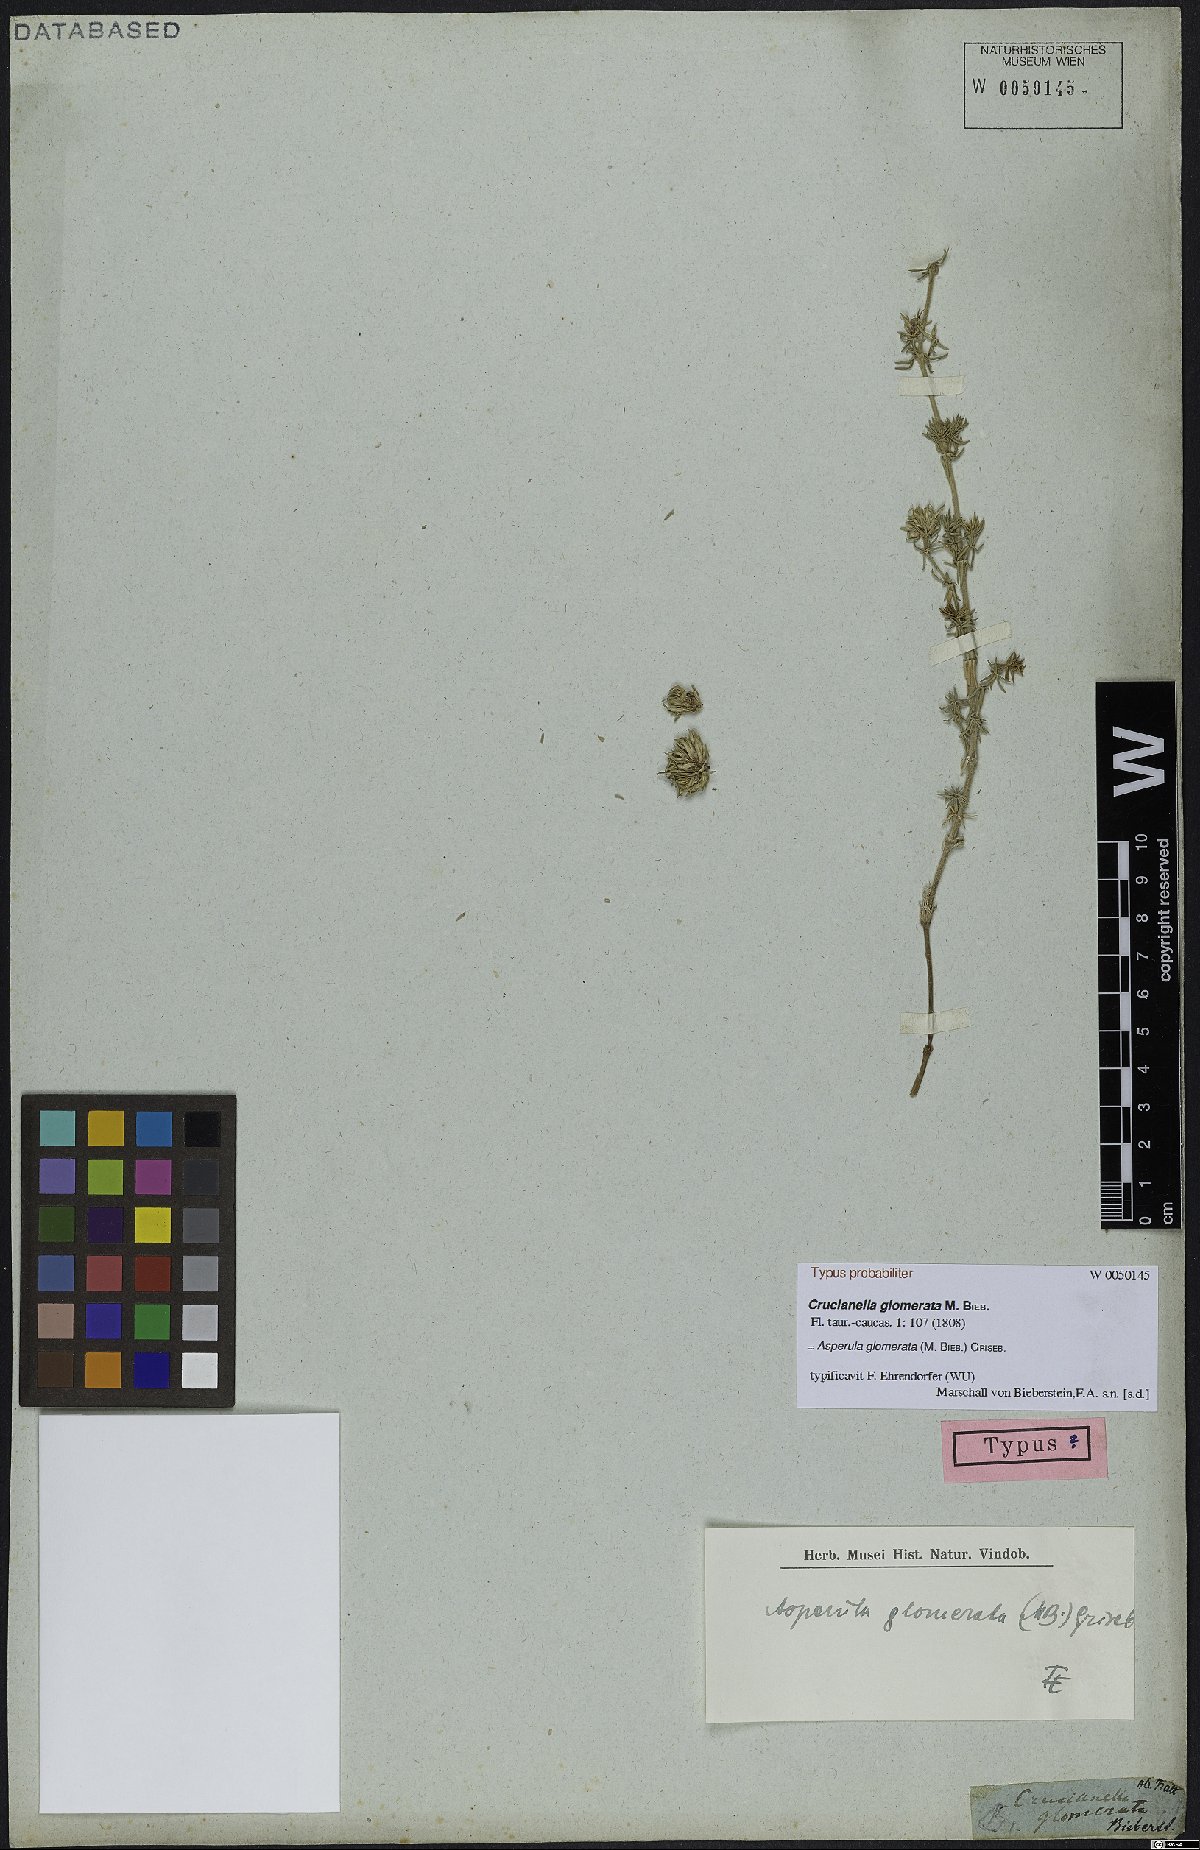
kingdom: Plantae
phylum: Tracheophyta
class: Magnoliopsida
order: Gentianales
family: Rubiaceae
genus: Asperula
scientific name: Asperula glomerata
